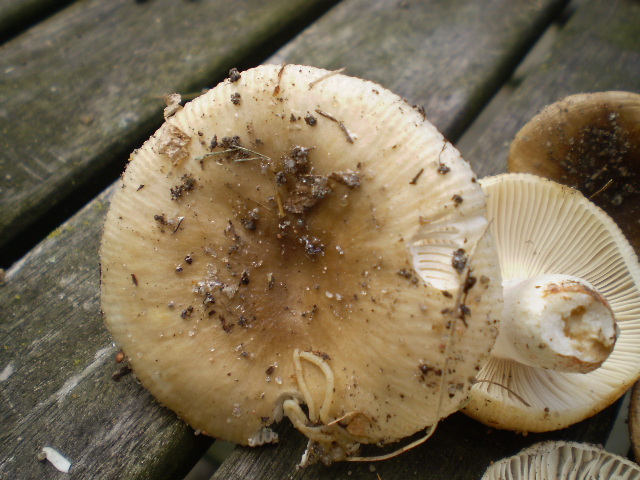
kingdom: Fungi
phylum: Basidiomycota
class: Agaricomycetes
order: Russulales
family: Russulaceae
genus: Russula
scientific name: Russula recondita
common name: mild kam-skørhat
